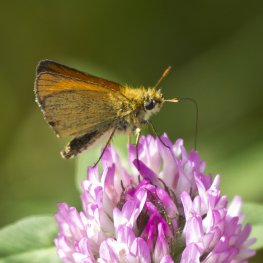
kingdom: Animalia
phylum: Arthropoda
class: Insecta
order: Lepidoptera
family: Hesperiidae
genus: Thymelicus
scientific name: Thymelicus lineola
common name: European Skipper
